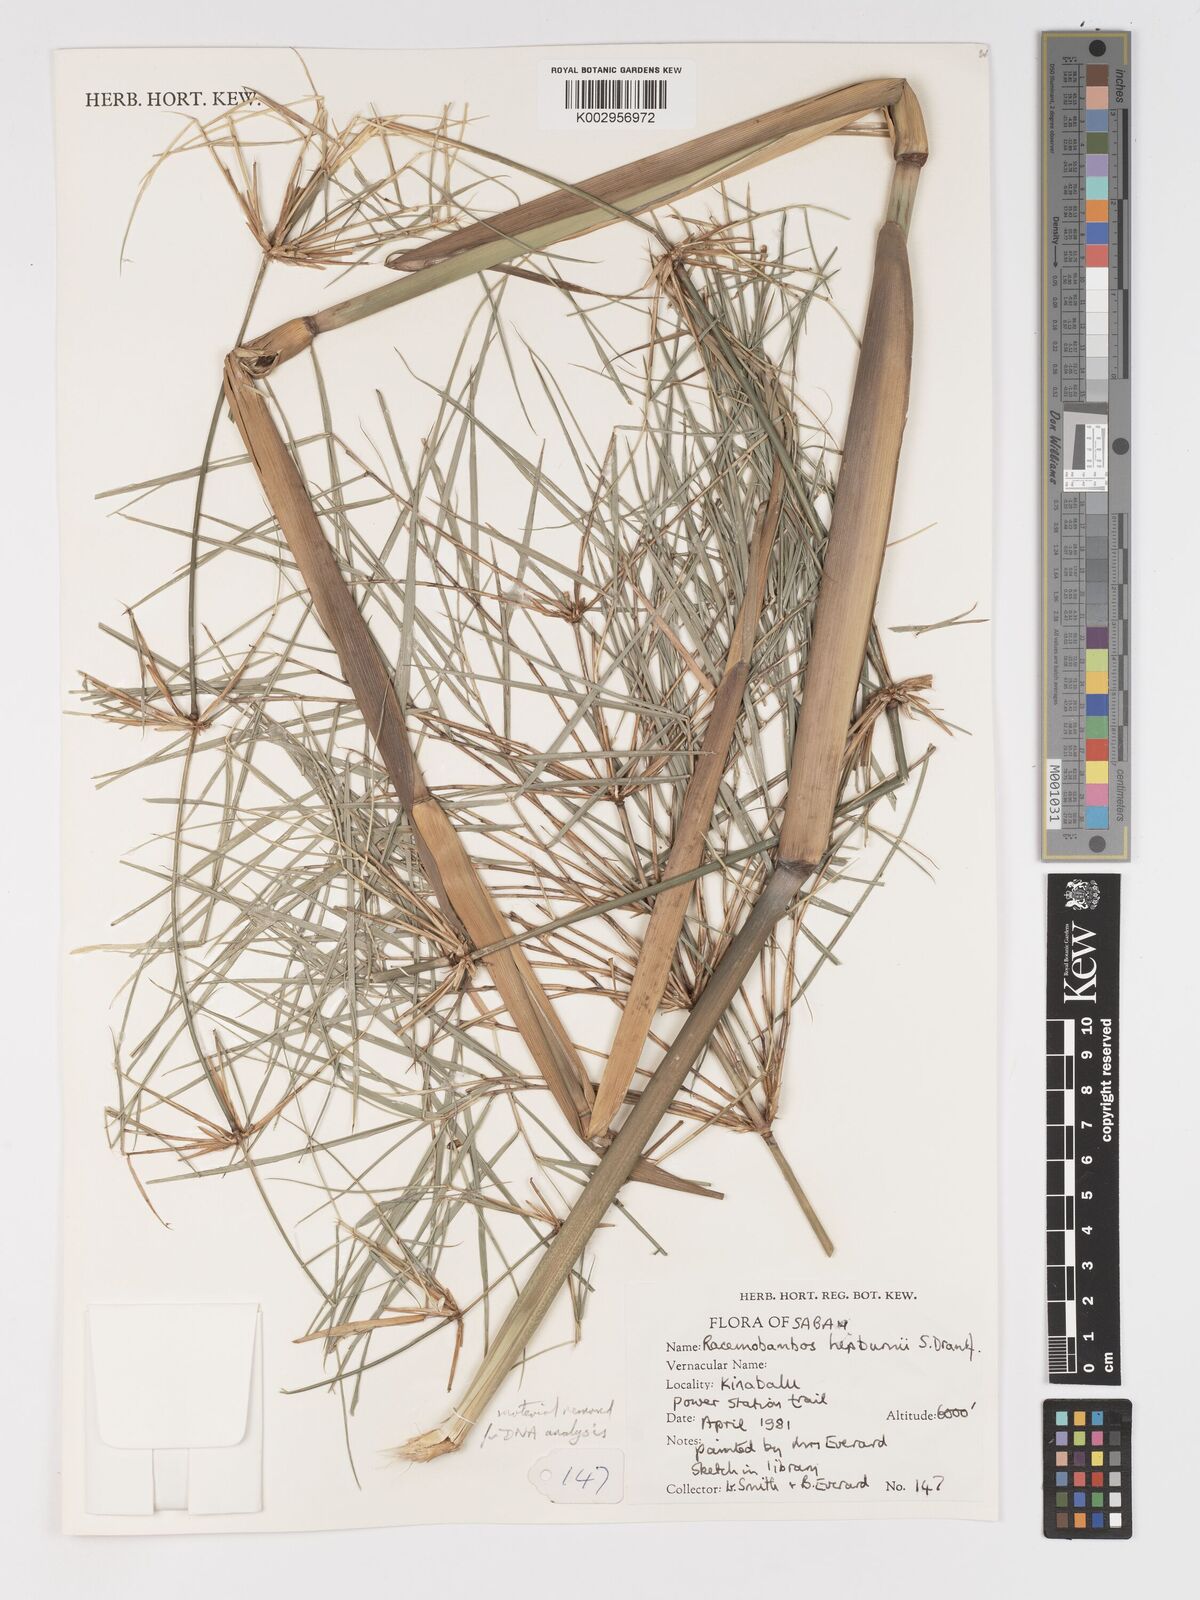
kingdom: Plantae
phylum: Tracheophyta
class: Liliopsida
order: Poales
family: Poaceae
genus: Racemobambos
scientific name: Racemobambos hepburnii
